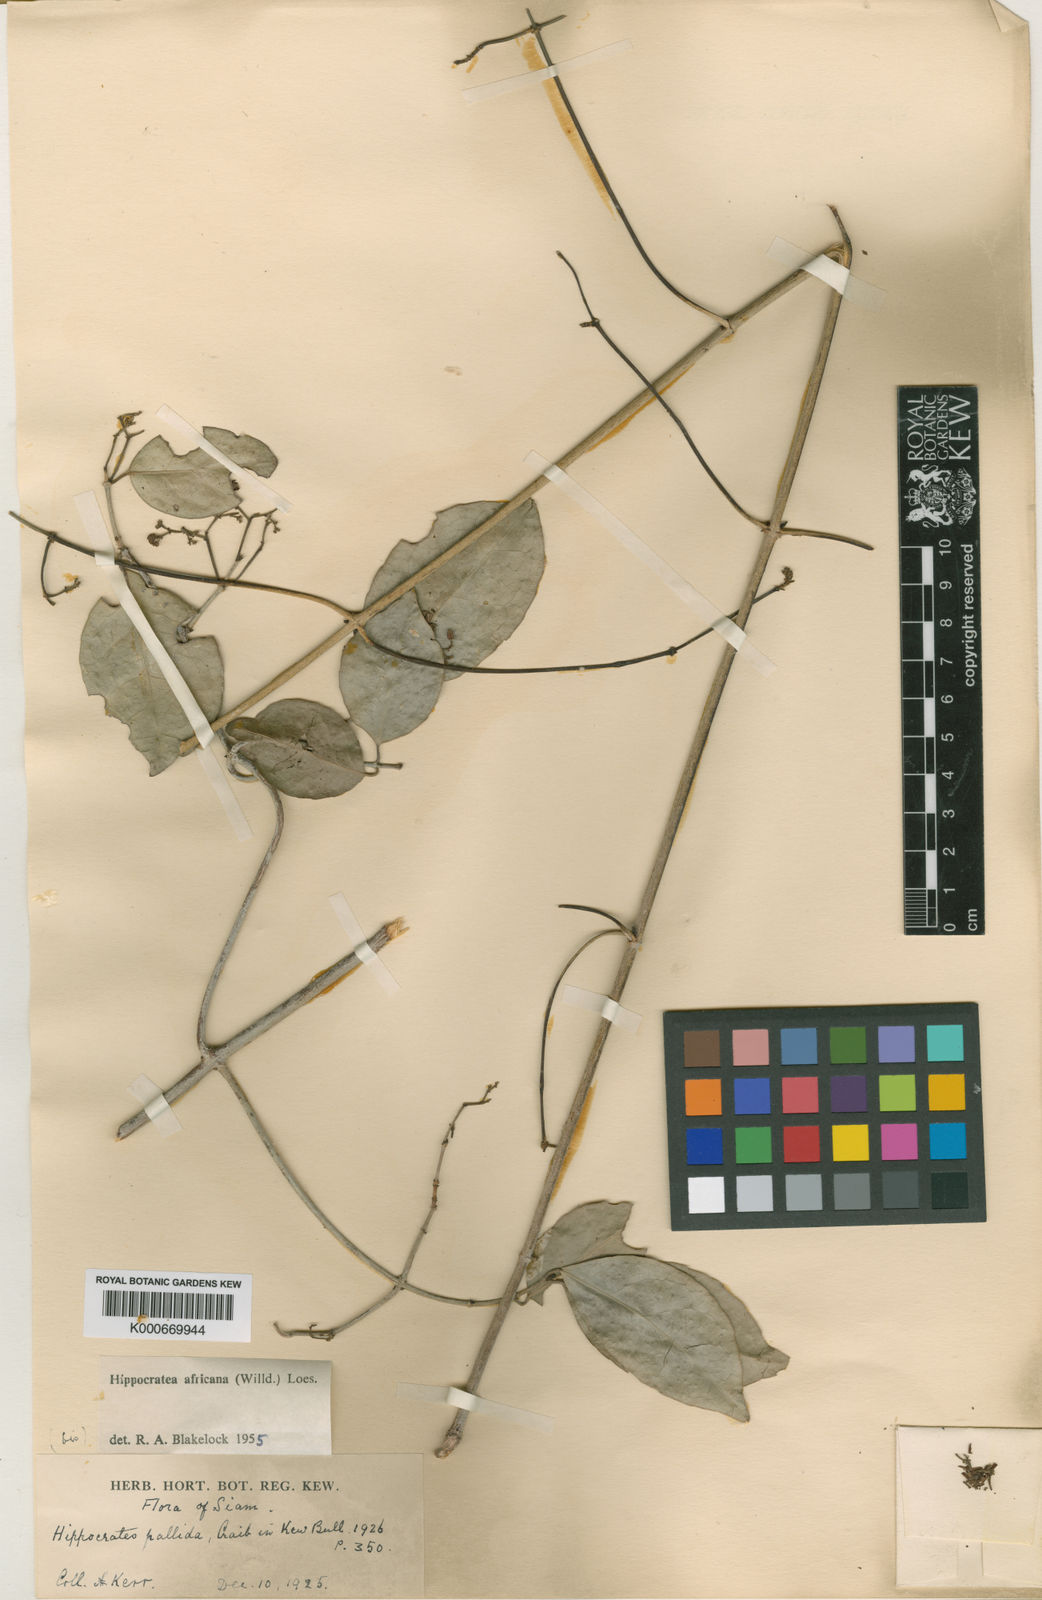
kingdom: Plantae
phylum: Tracheophyta
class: Magnoliopsida
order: Celastrales
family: Celastraceae
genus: Loeseneriella
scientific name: Loeseneriella
